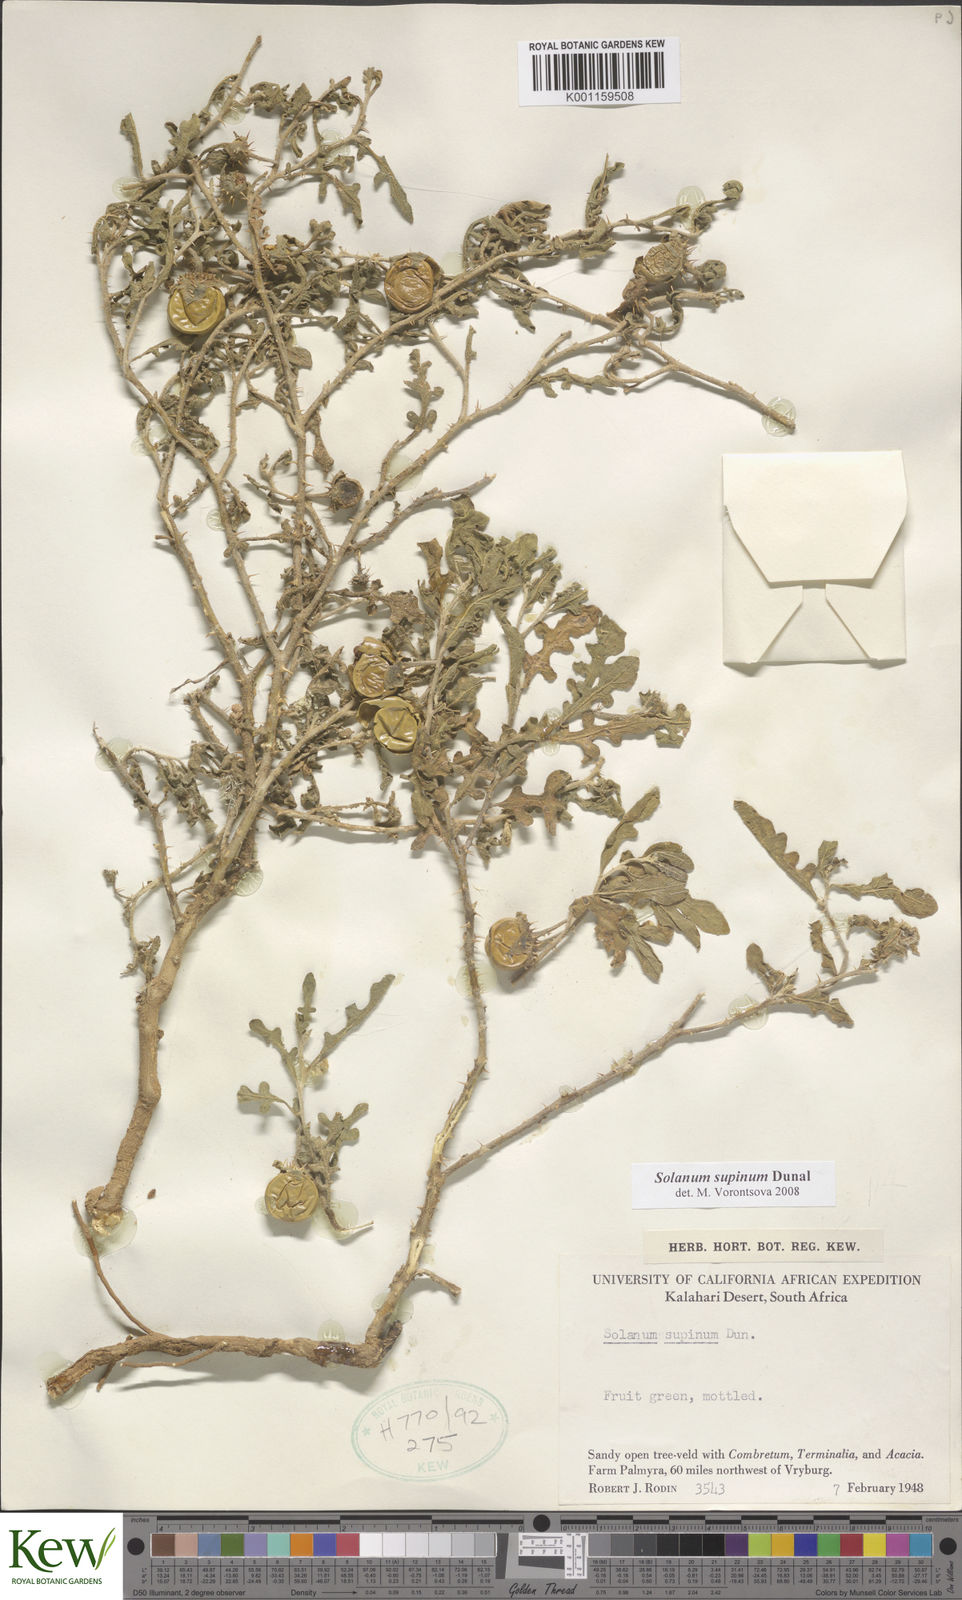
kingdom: Plantae
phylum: Tracheophyta
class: Magnoliopsida
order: Solanales
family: Solanaceae
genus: Solanum
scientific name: Solanum supinum
